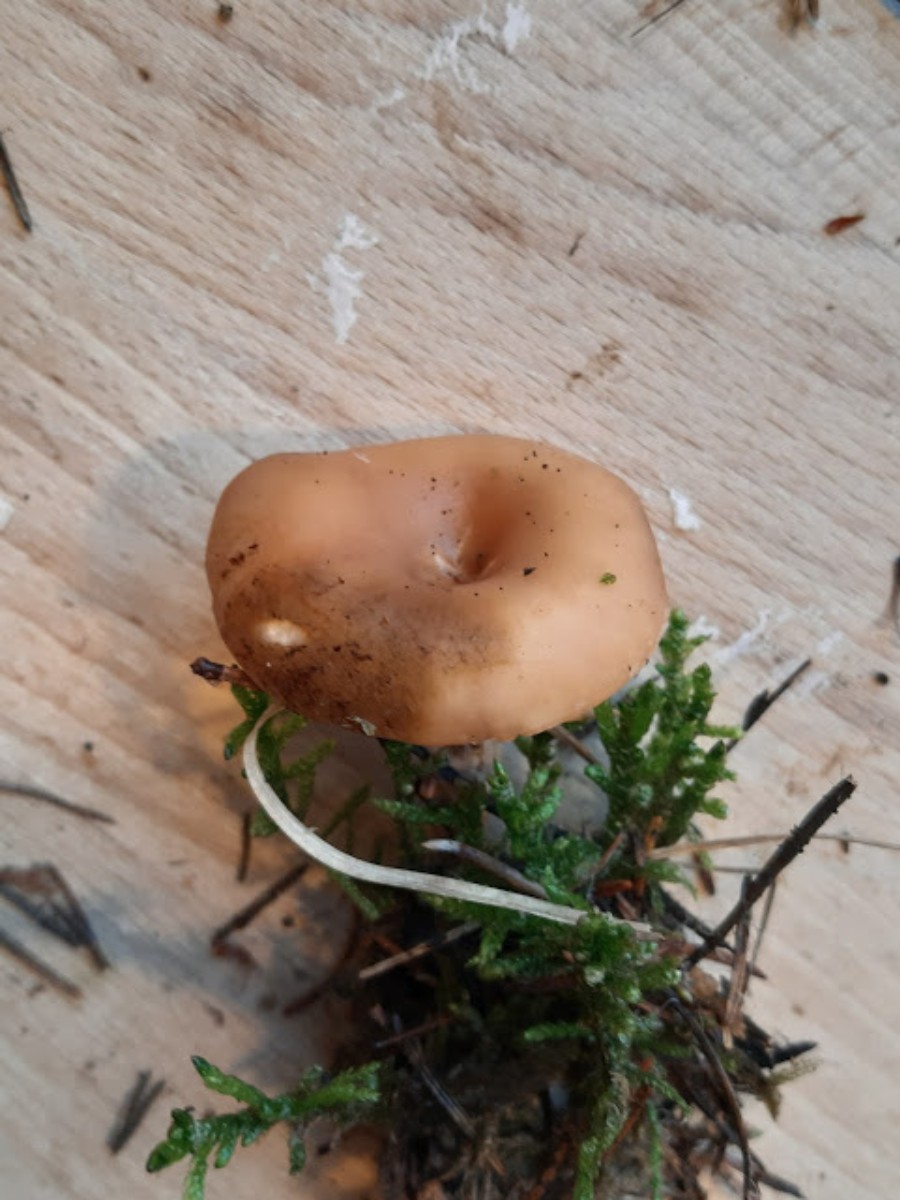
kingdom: Fungi
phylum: Basidiomycota
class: Agaricomycetes
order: Agaricales
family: Tricholomataceae
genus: Paralepista
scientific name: Paralepista flaccida
